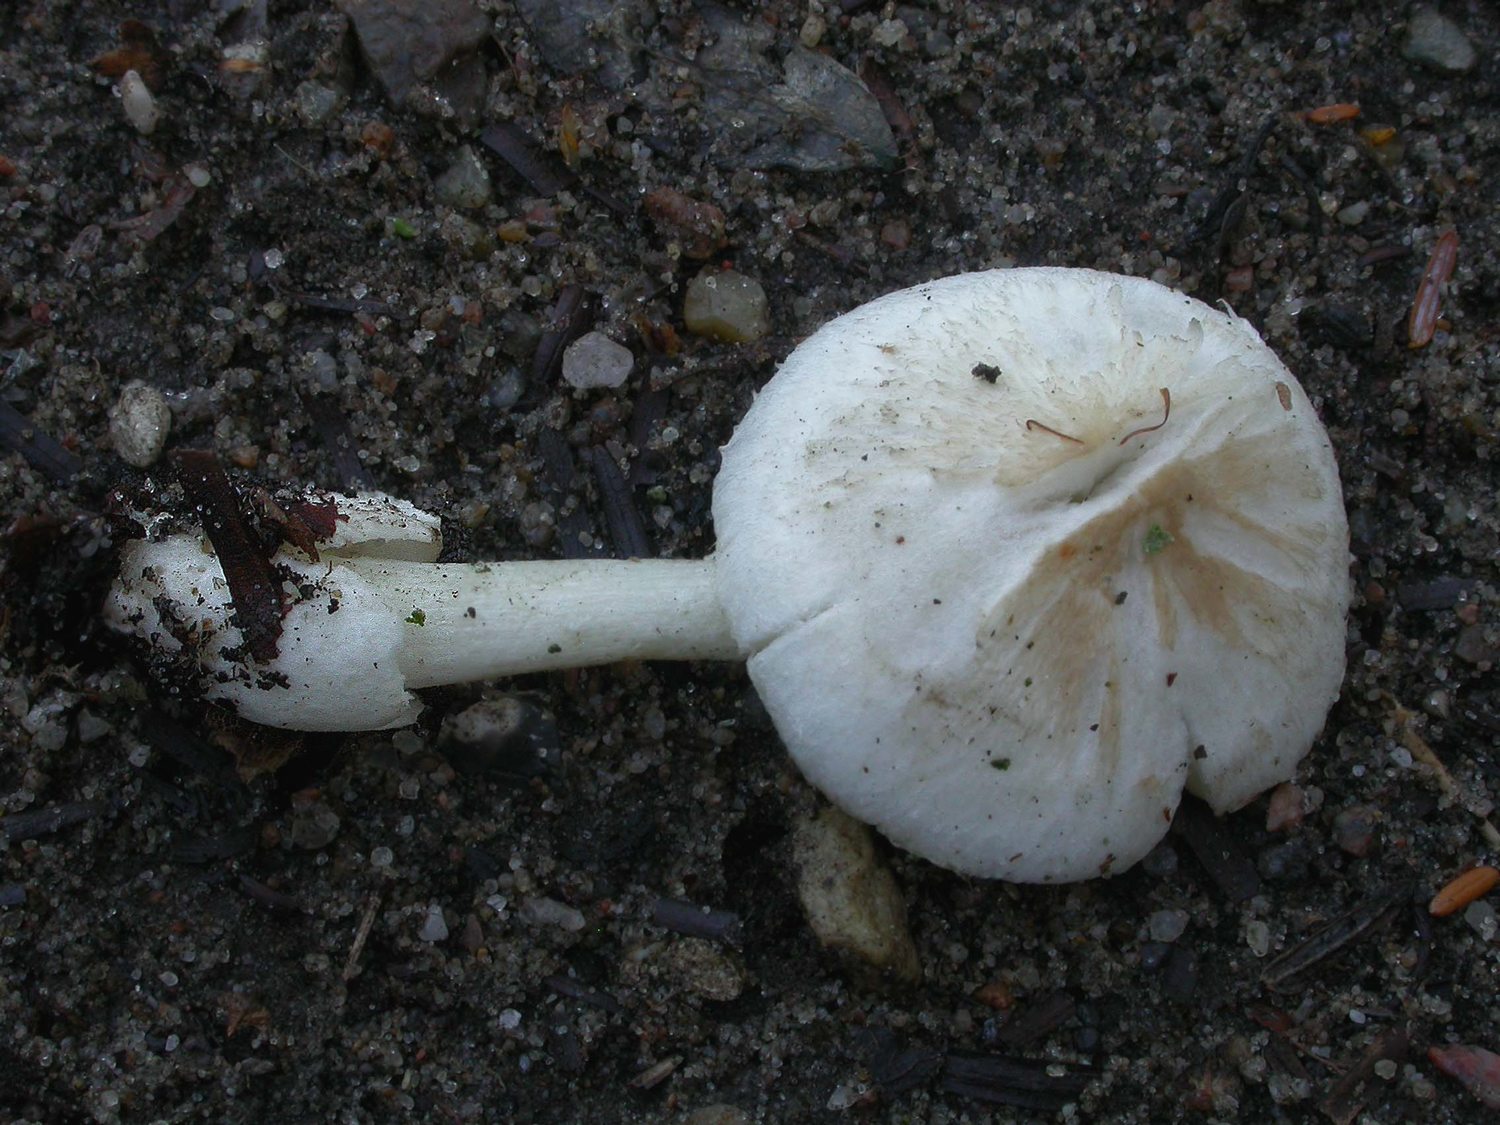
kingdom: Fungi
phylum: Basidiomycota
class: Agaricomycetes
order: Agaricales
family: Pluteaceae
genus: Volvariella
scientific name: Volvariella hypopithys
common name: dunstokket posesvamp
